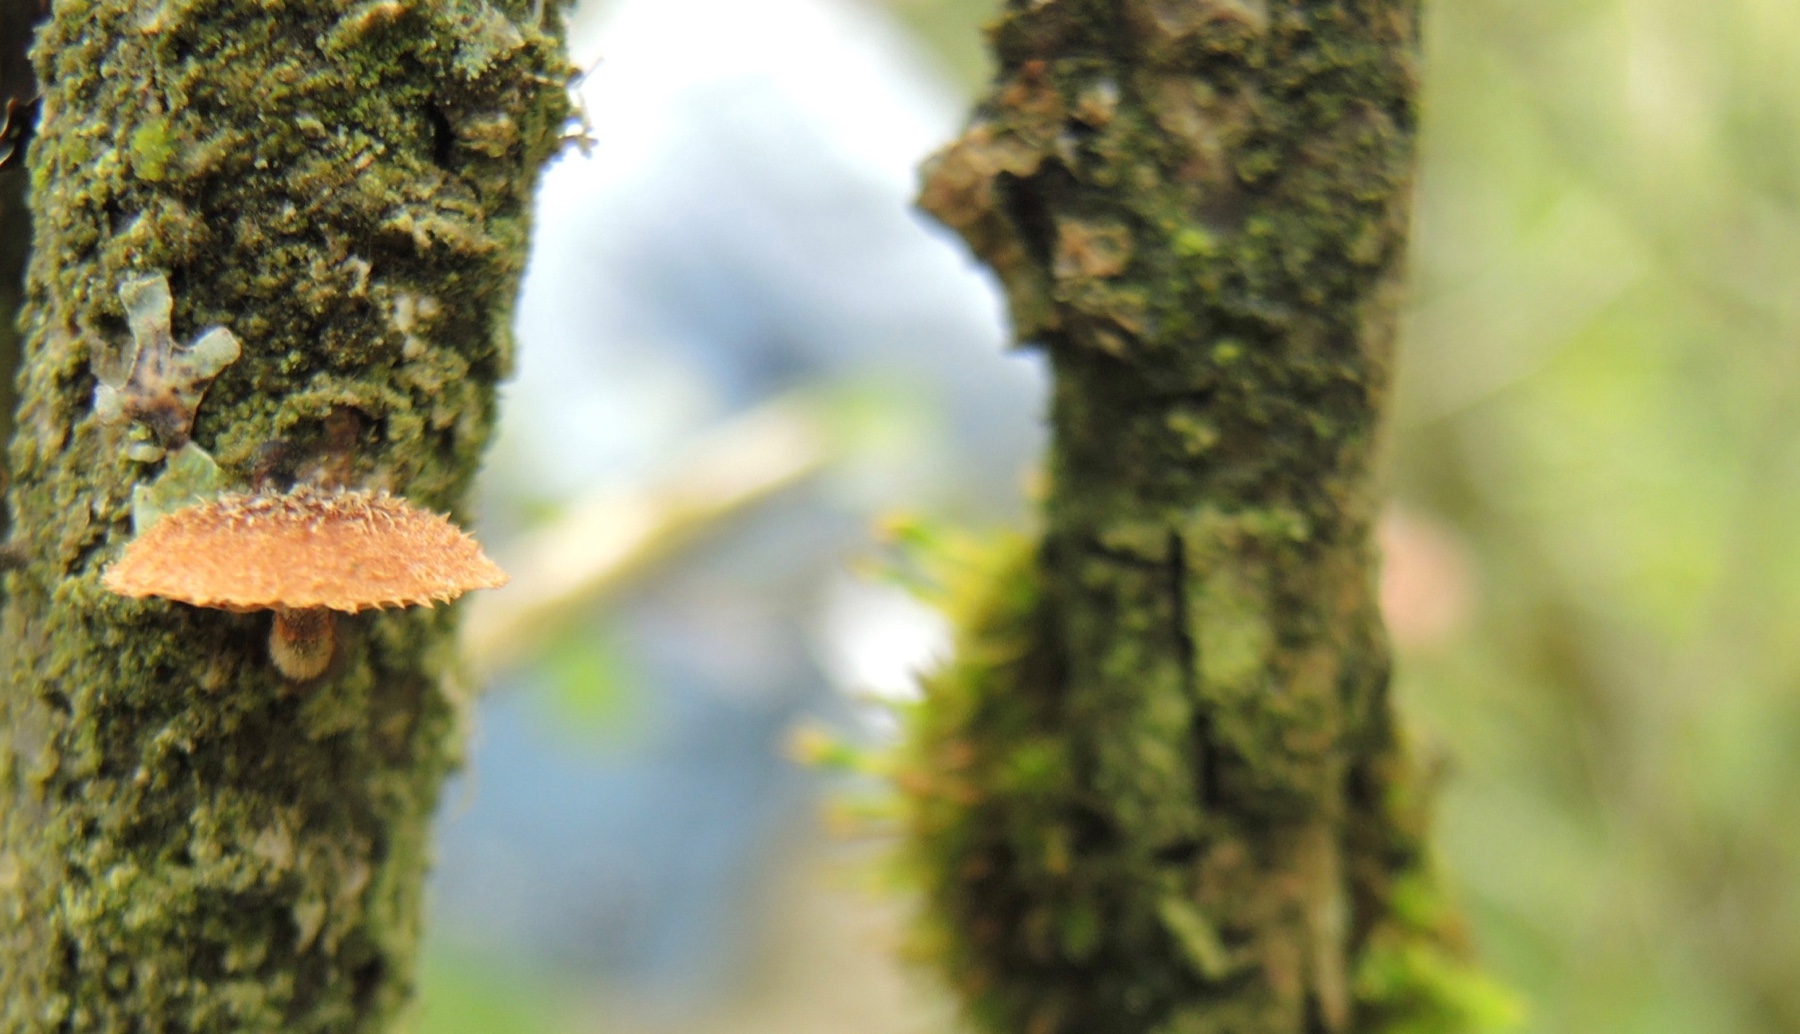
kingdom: Fungi
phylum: Basidiomycota
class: Agaricomycetes
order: Agaricales
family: Tubariaceae
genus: Phaeomarasmius
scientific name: Phaeomarasmius erinaceus
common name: spidsskælhat
